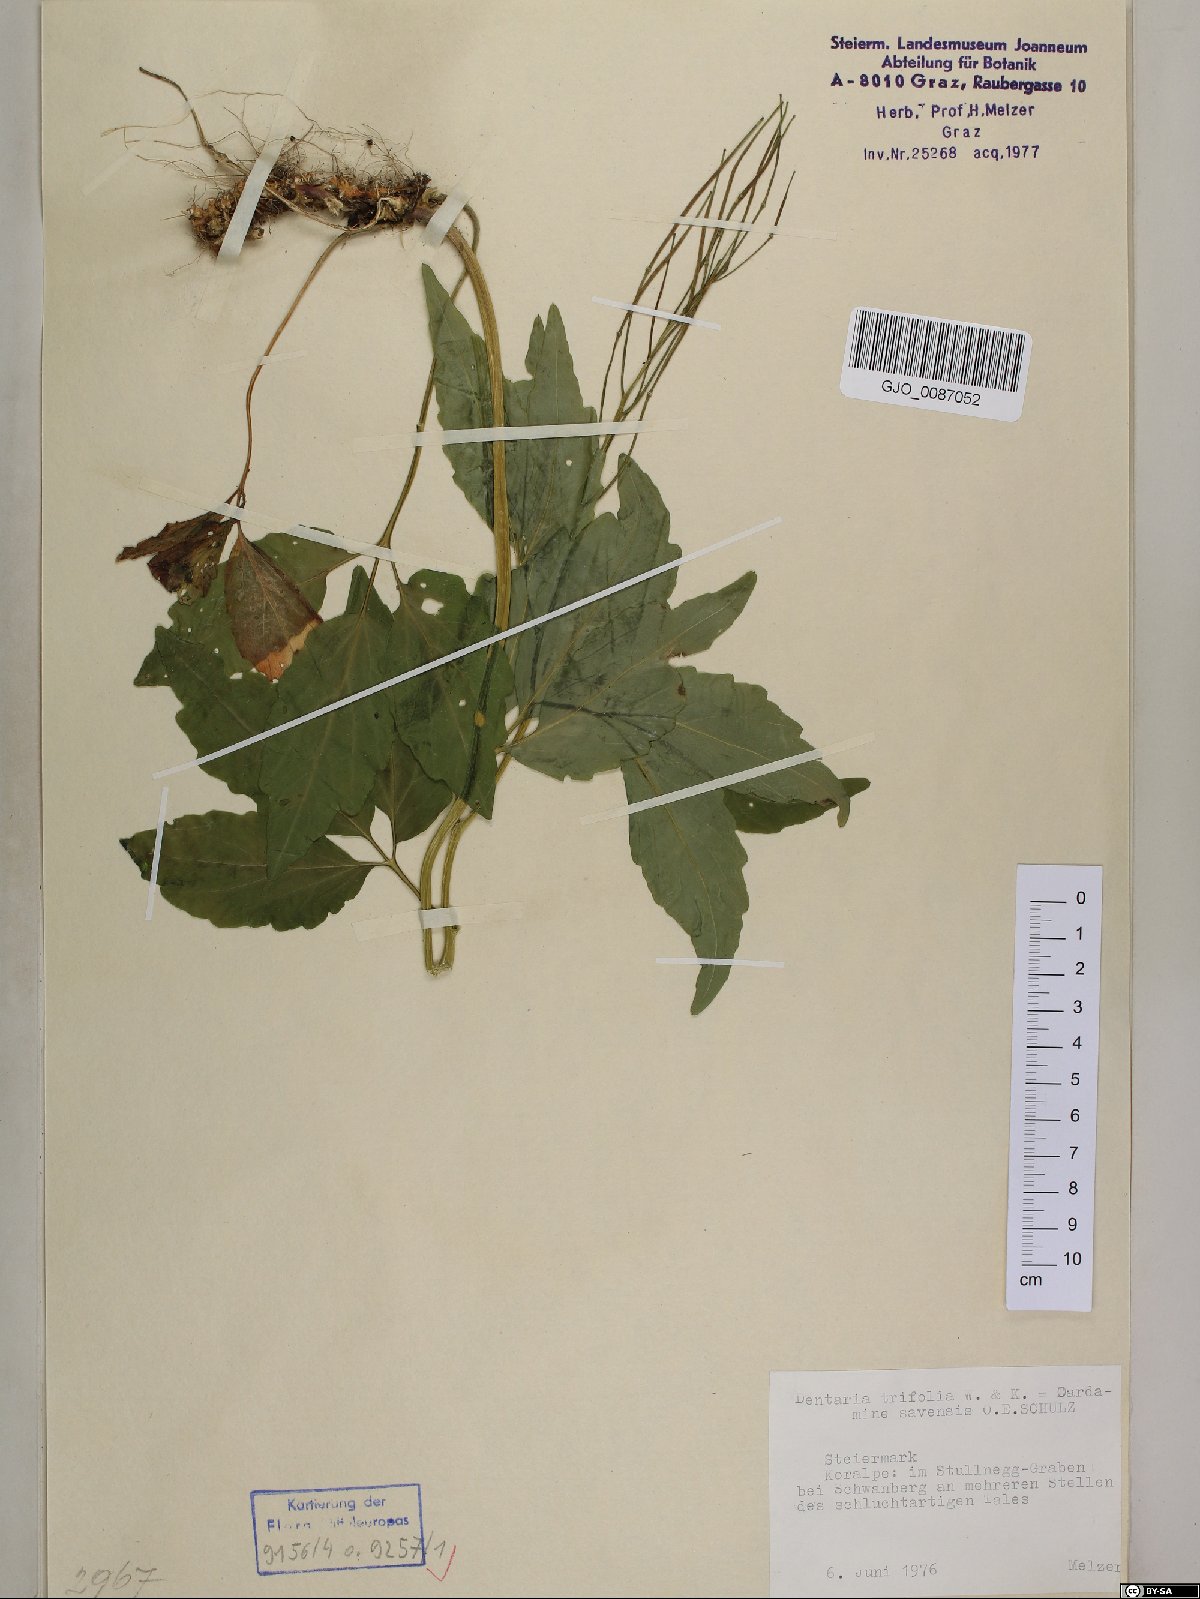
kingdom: Plantae
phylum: Tracheophyta
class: Magnoliopsida
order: Brassicales
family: Brassicaceae
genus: Cardamine
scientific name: Cardamine waldsteinii
